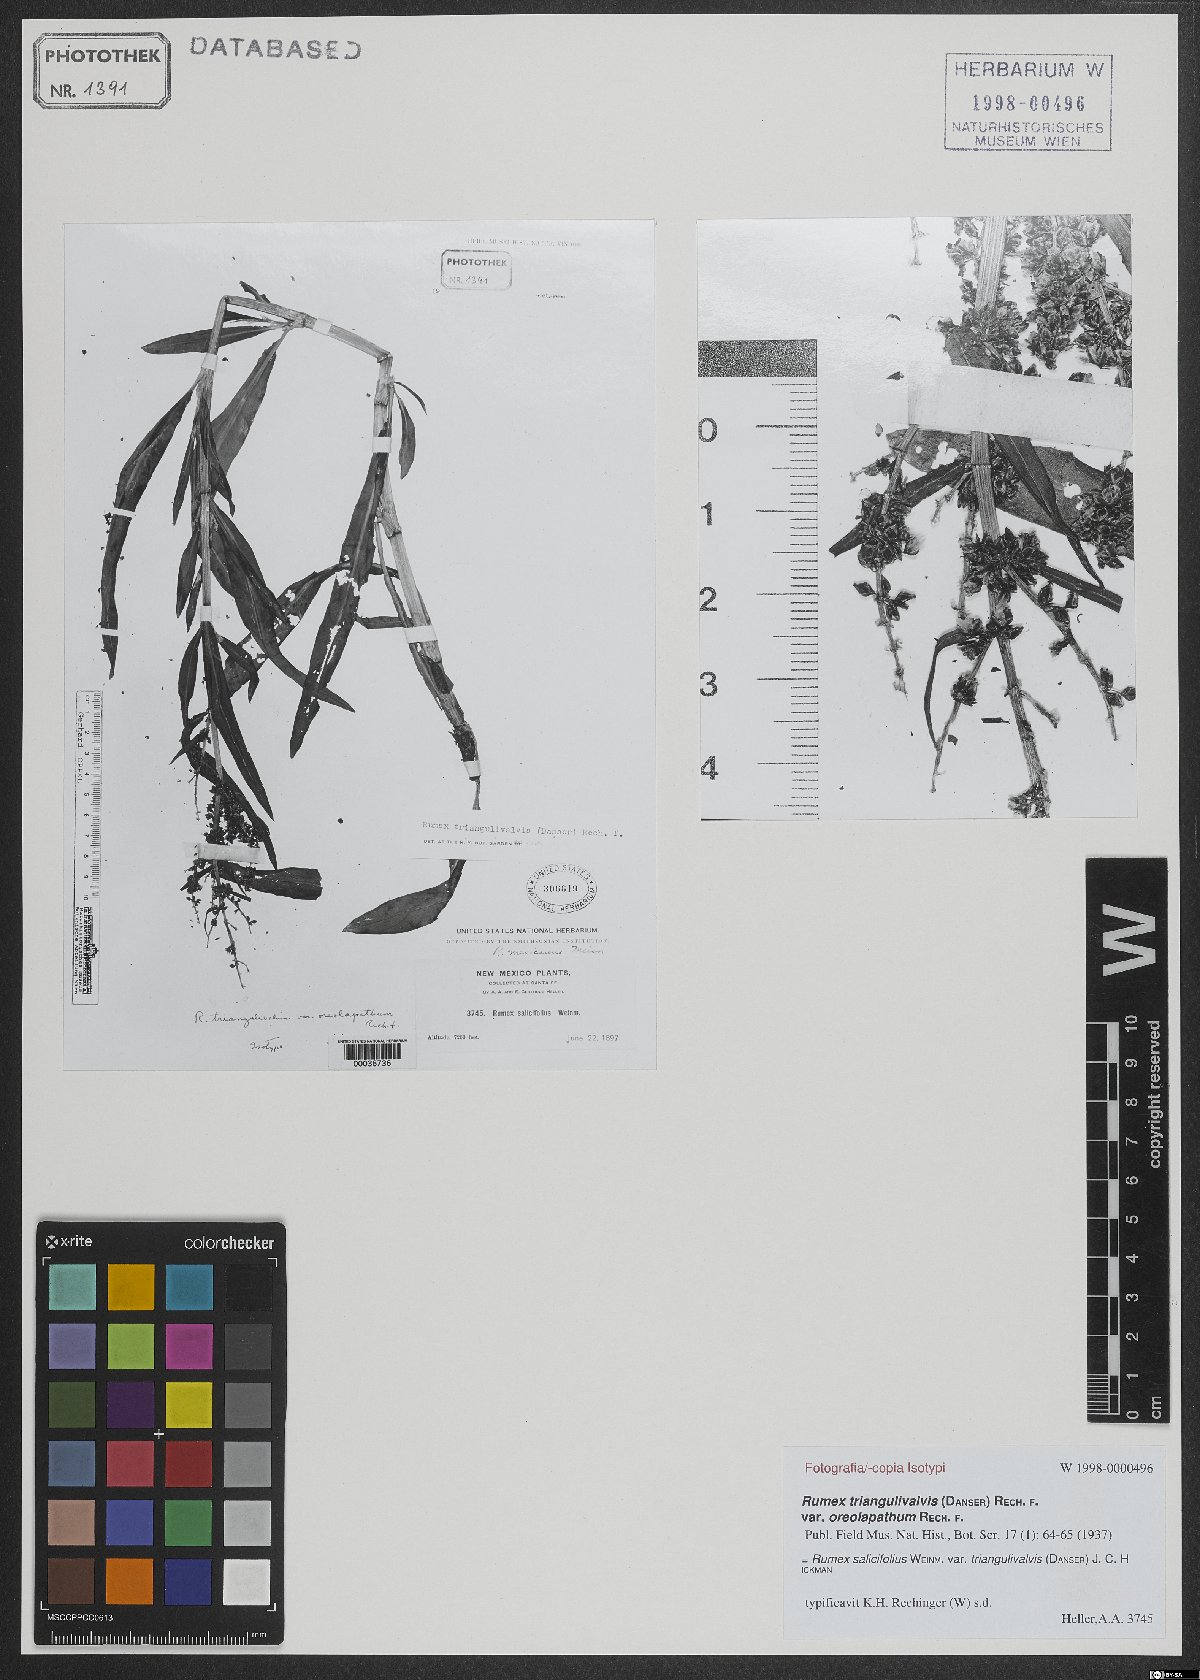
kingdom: Plantae
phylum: Tracheophyta
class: Magnoliopsida
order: Caryophyllales
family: Polygonaceae
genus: Rumex
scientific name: Rumex triangulivalvis
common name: Triangular-valve dock
